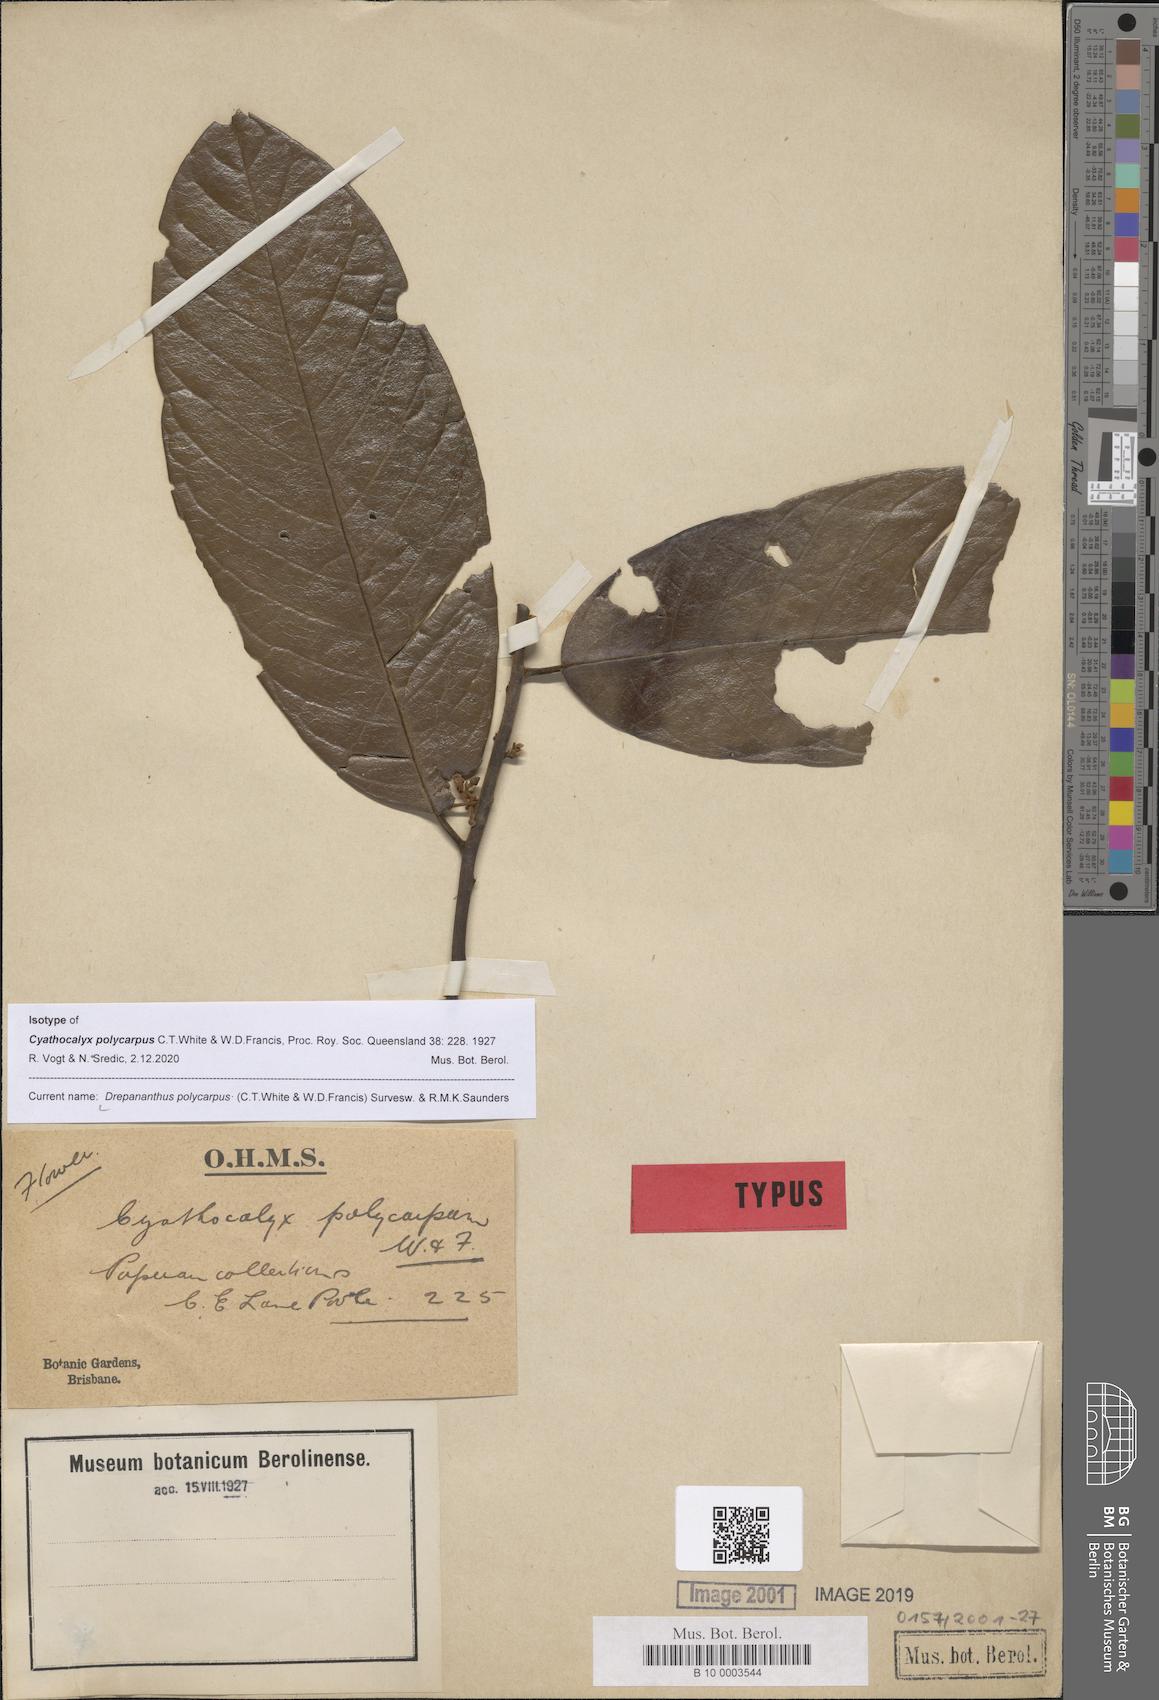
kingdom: Plantae
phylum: Tracheophyta
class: Magnoliopsida
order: Magnoliales
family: Annonaceae
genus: Drepananthus
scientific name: Drepananthus polycarpus
